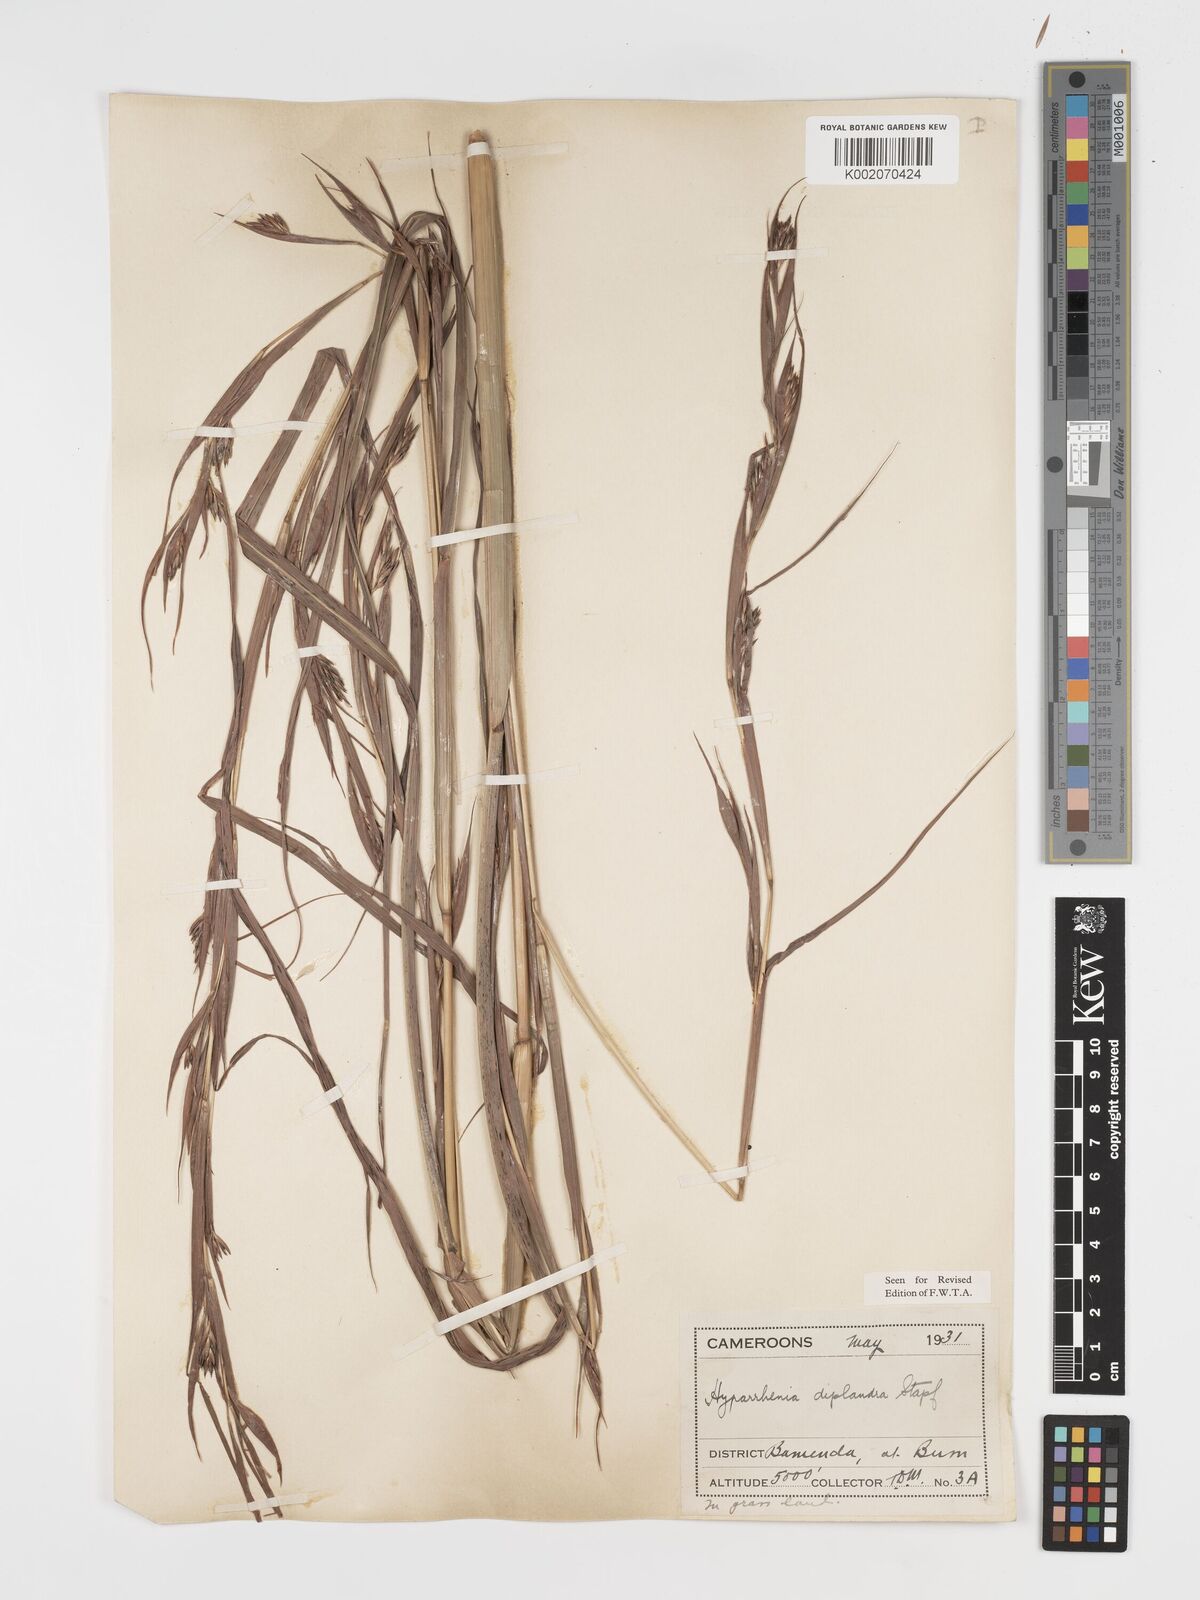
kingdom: Plantae
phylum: Tracheophyta
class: Liliopsida
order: Poales
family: Poaceae
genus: Hyparrhenia
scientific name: Hyparrhenia diplandra
